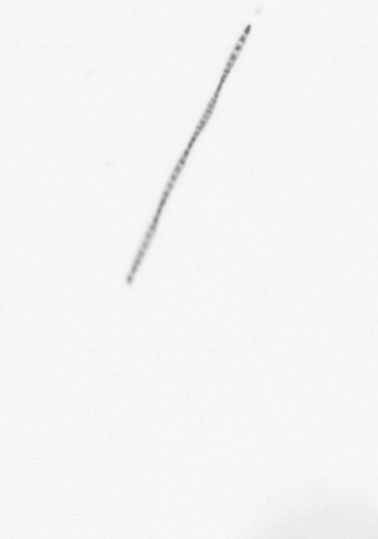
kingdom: Chromista
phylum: Ochrophyta
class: Bacillariophyceae
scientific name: Bacillariophyceae
